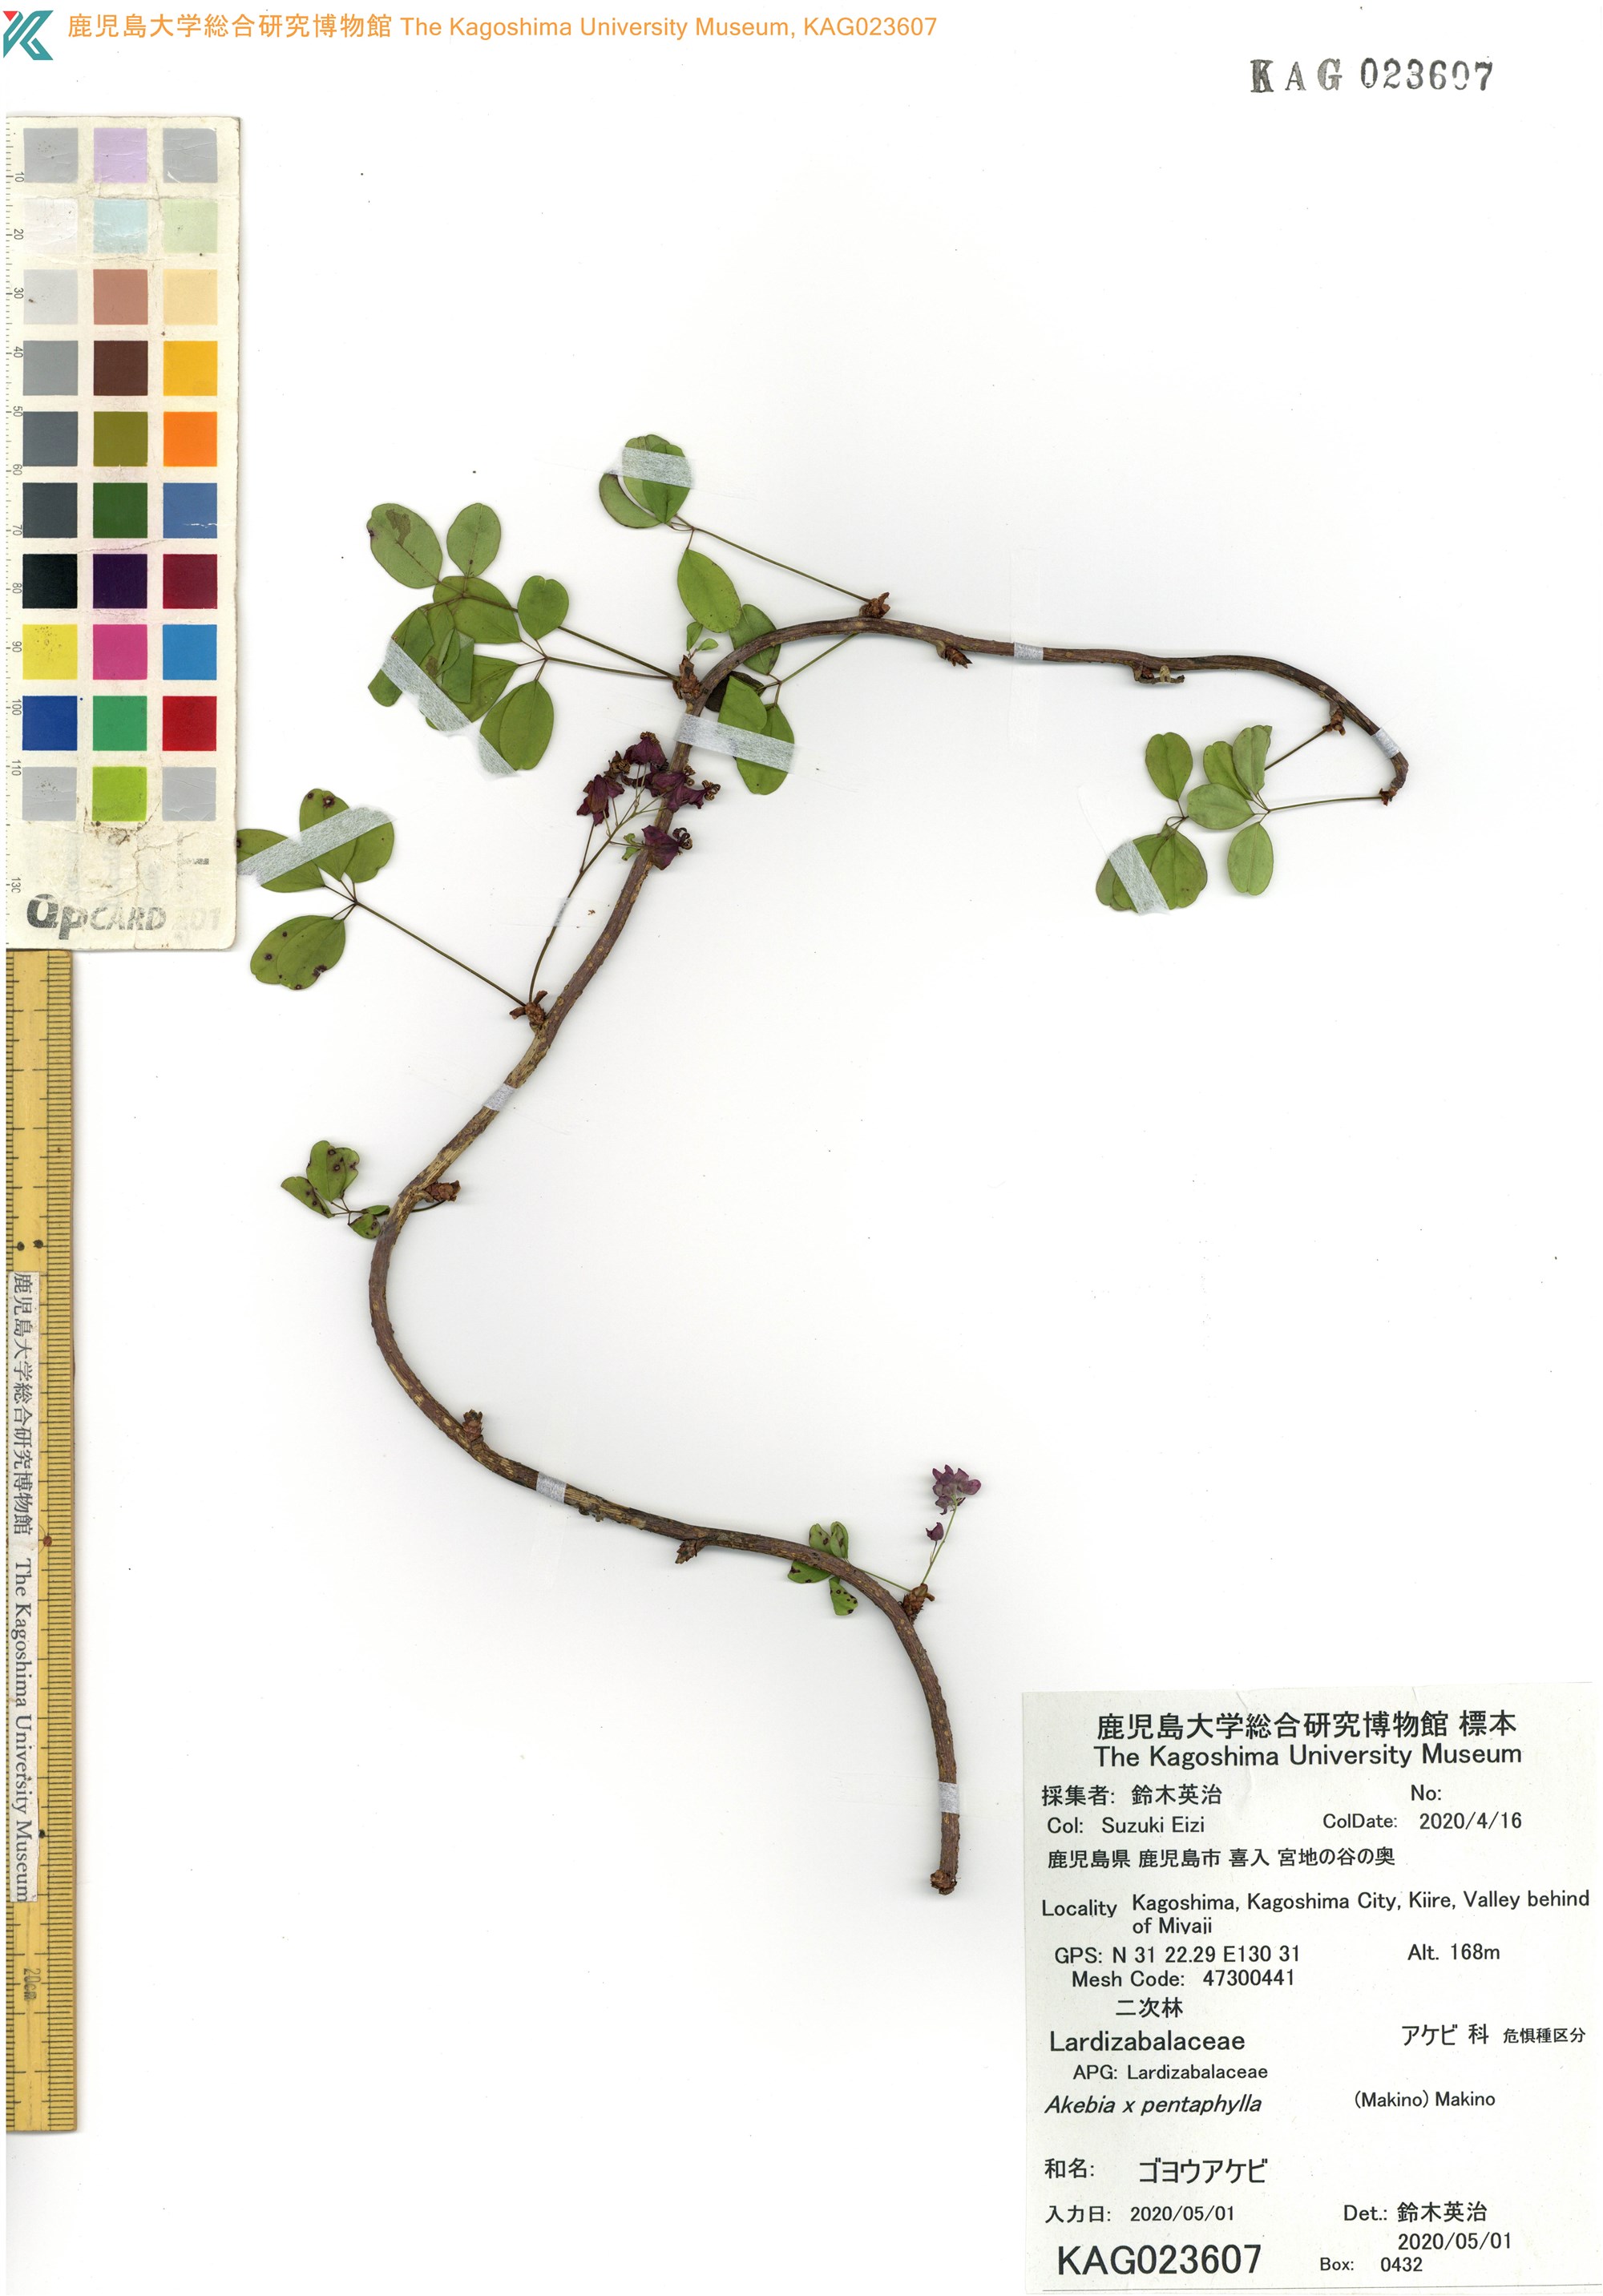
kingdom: Plantae
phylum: Tracheophyta
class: Magnoliopsida
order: Ranunculales
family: Lardizabalaceae
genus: Akebia
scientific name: Akebia quinata
